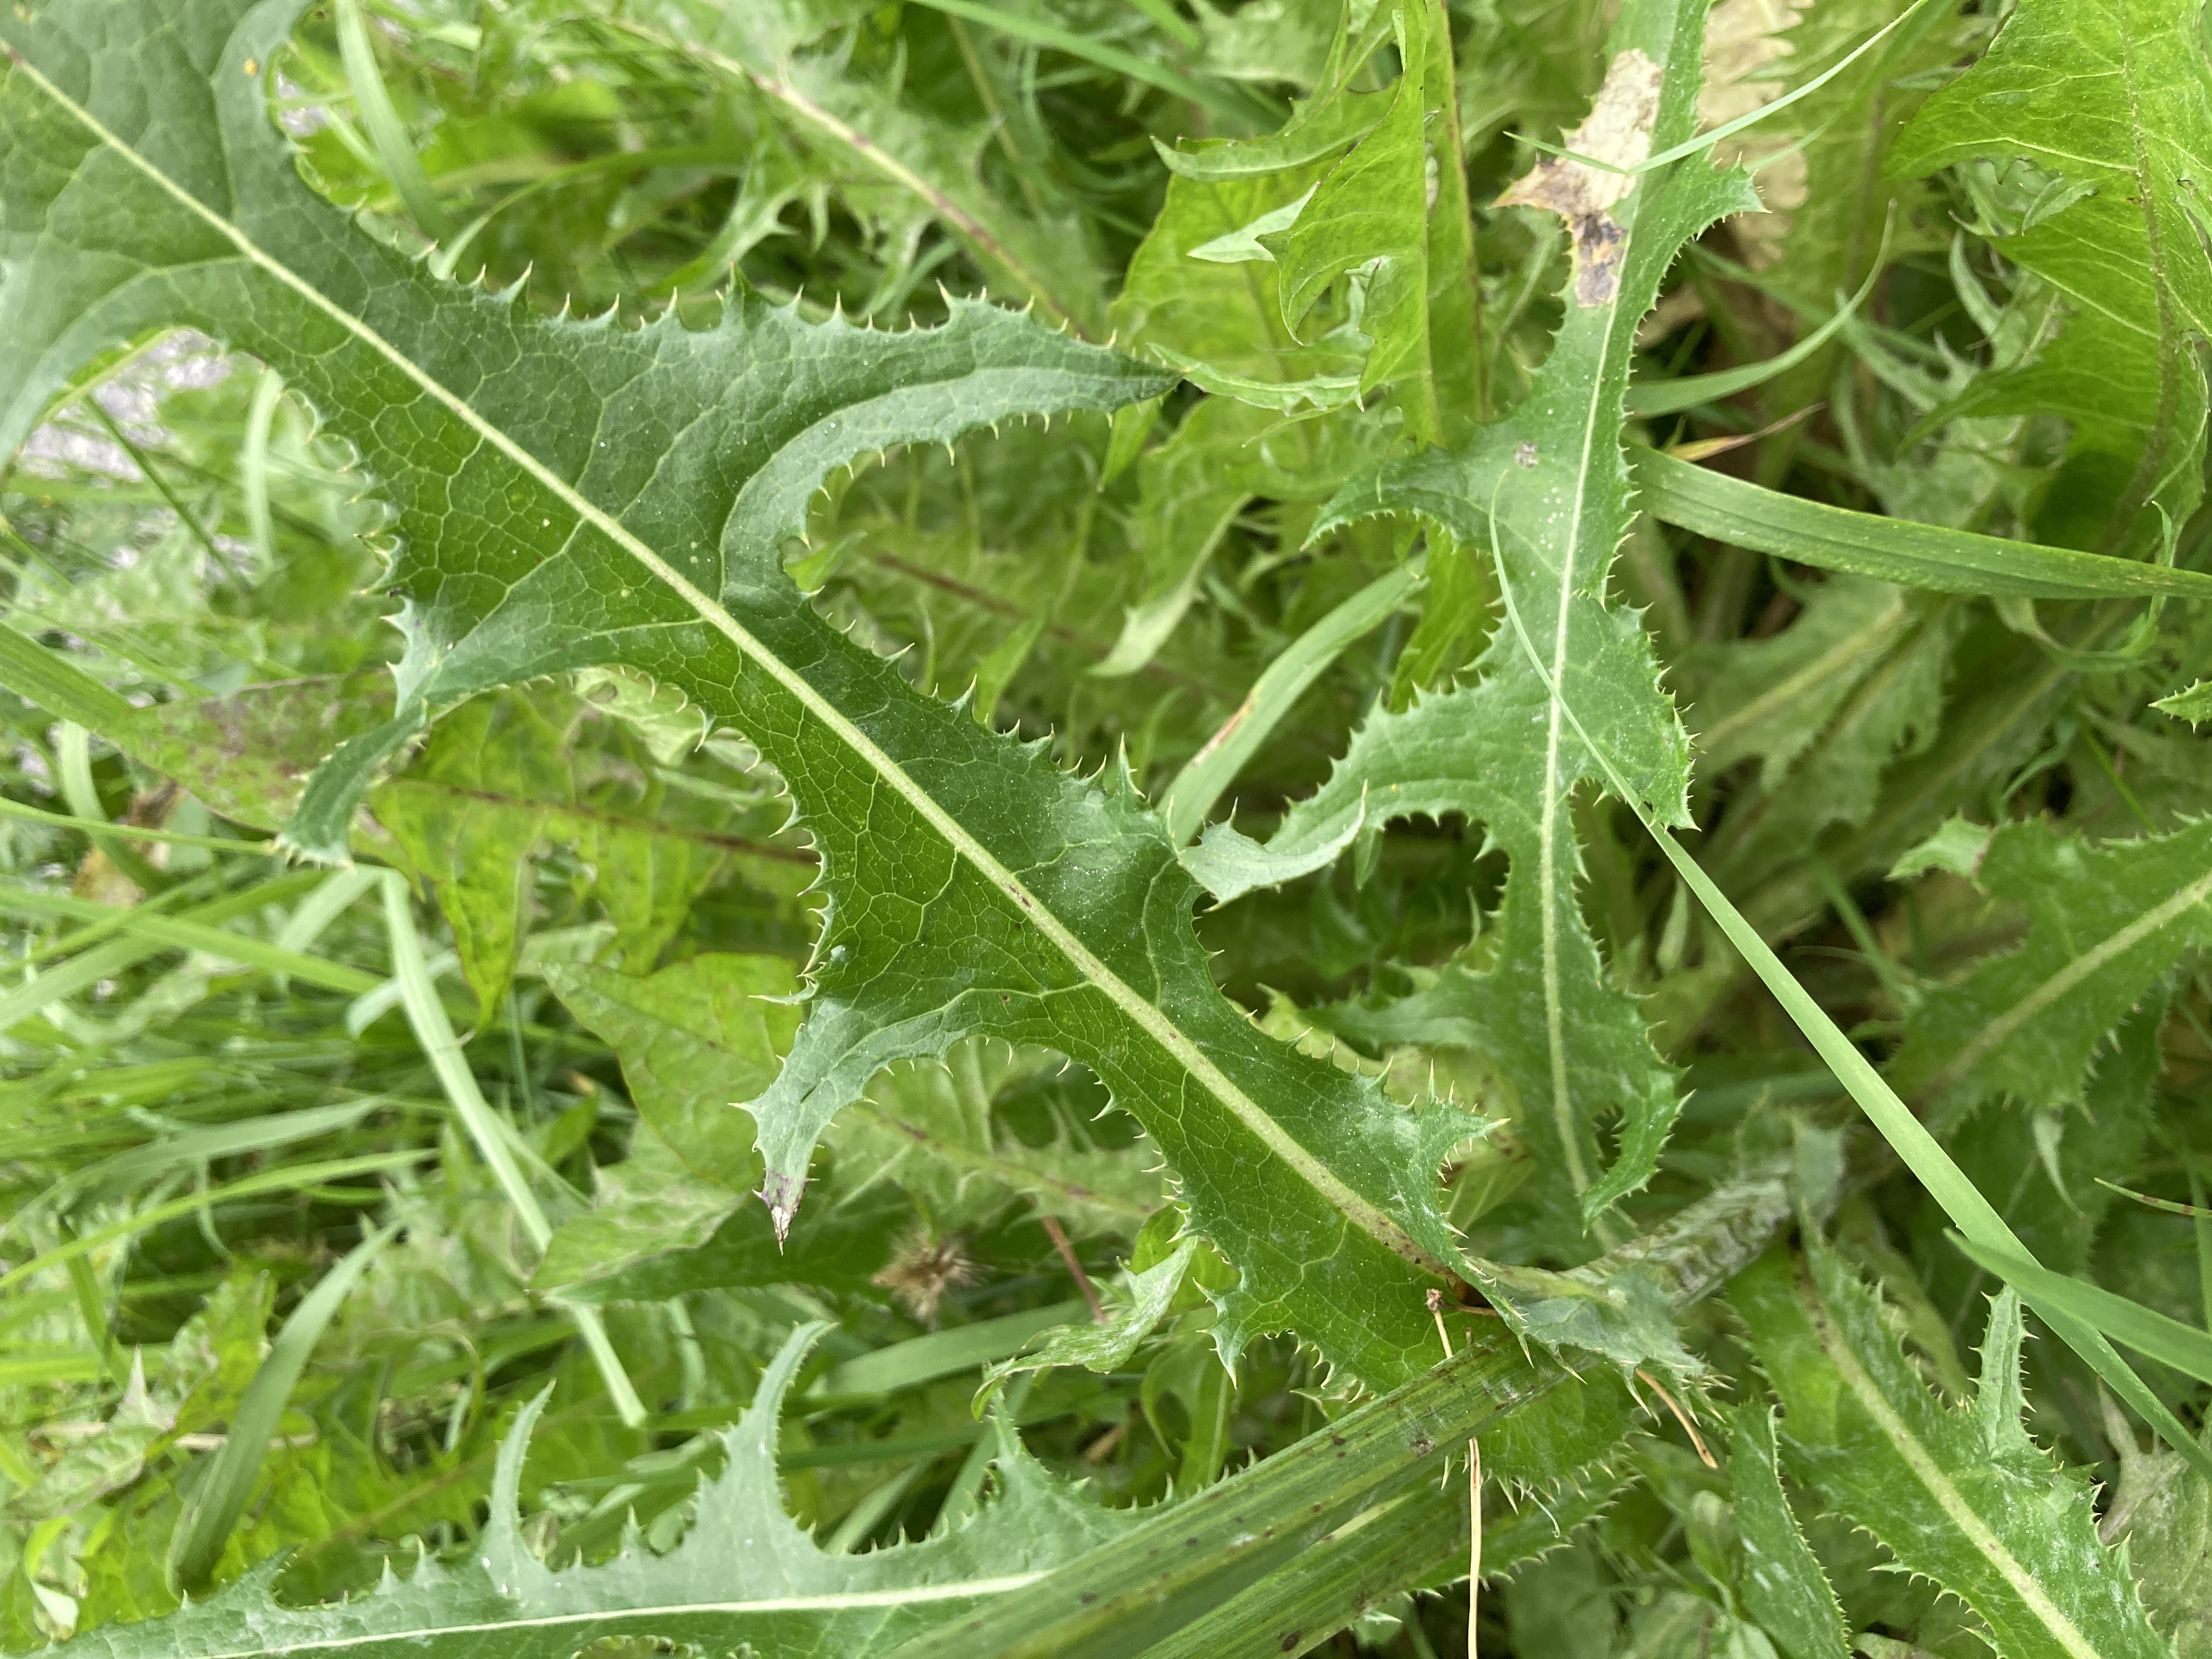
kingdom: Plantae
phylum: Tracheophyta
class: Magnoliopsida
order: Asterales
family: Asteraceae
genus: Sonchus
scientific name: Sonchus arvensis
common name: Ager-svinemælk
